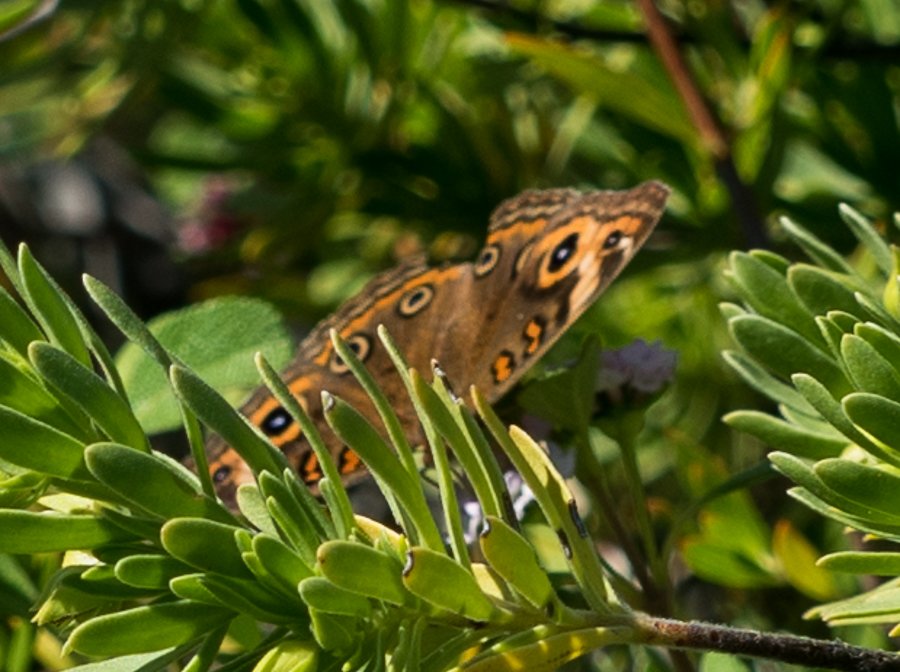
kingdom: Animalia
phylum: Arthropoda
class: Insecta
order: Lepidoptera
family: Nymphalidae
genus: Junonia
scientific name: Junonia evarete
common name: Mangrove Buckeye
